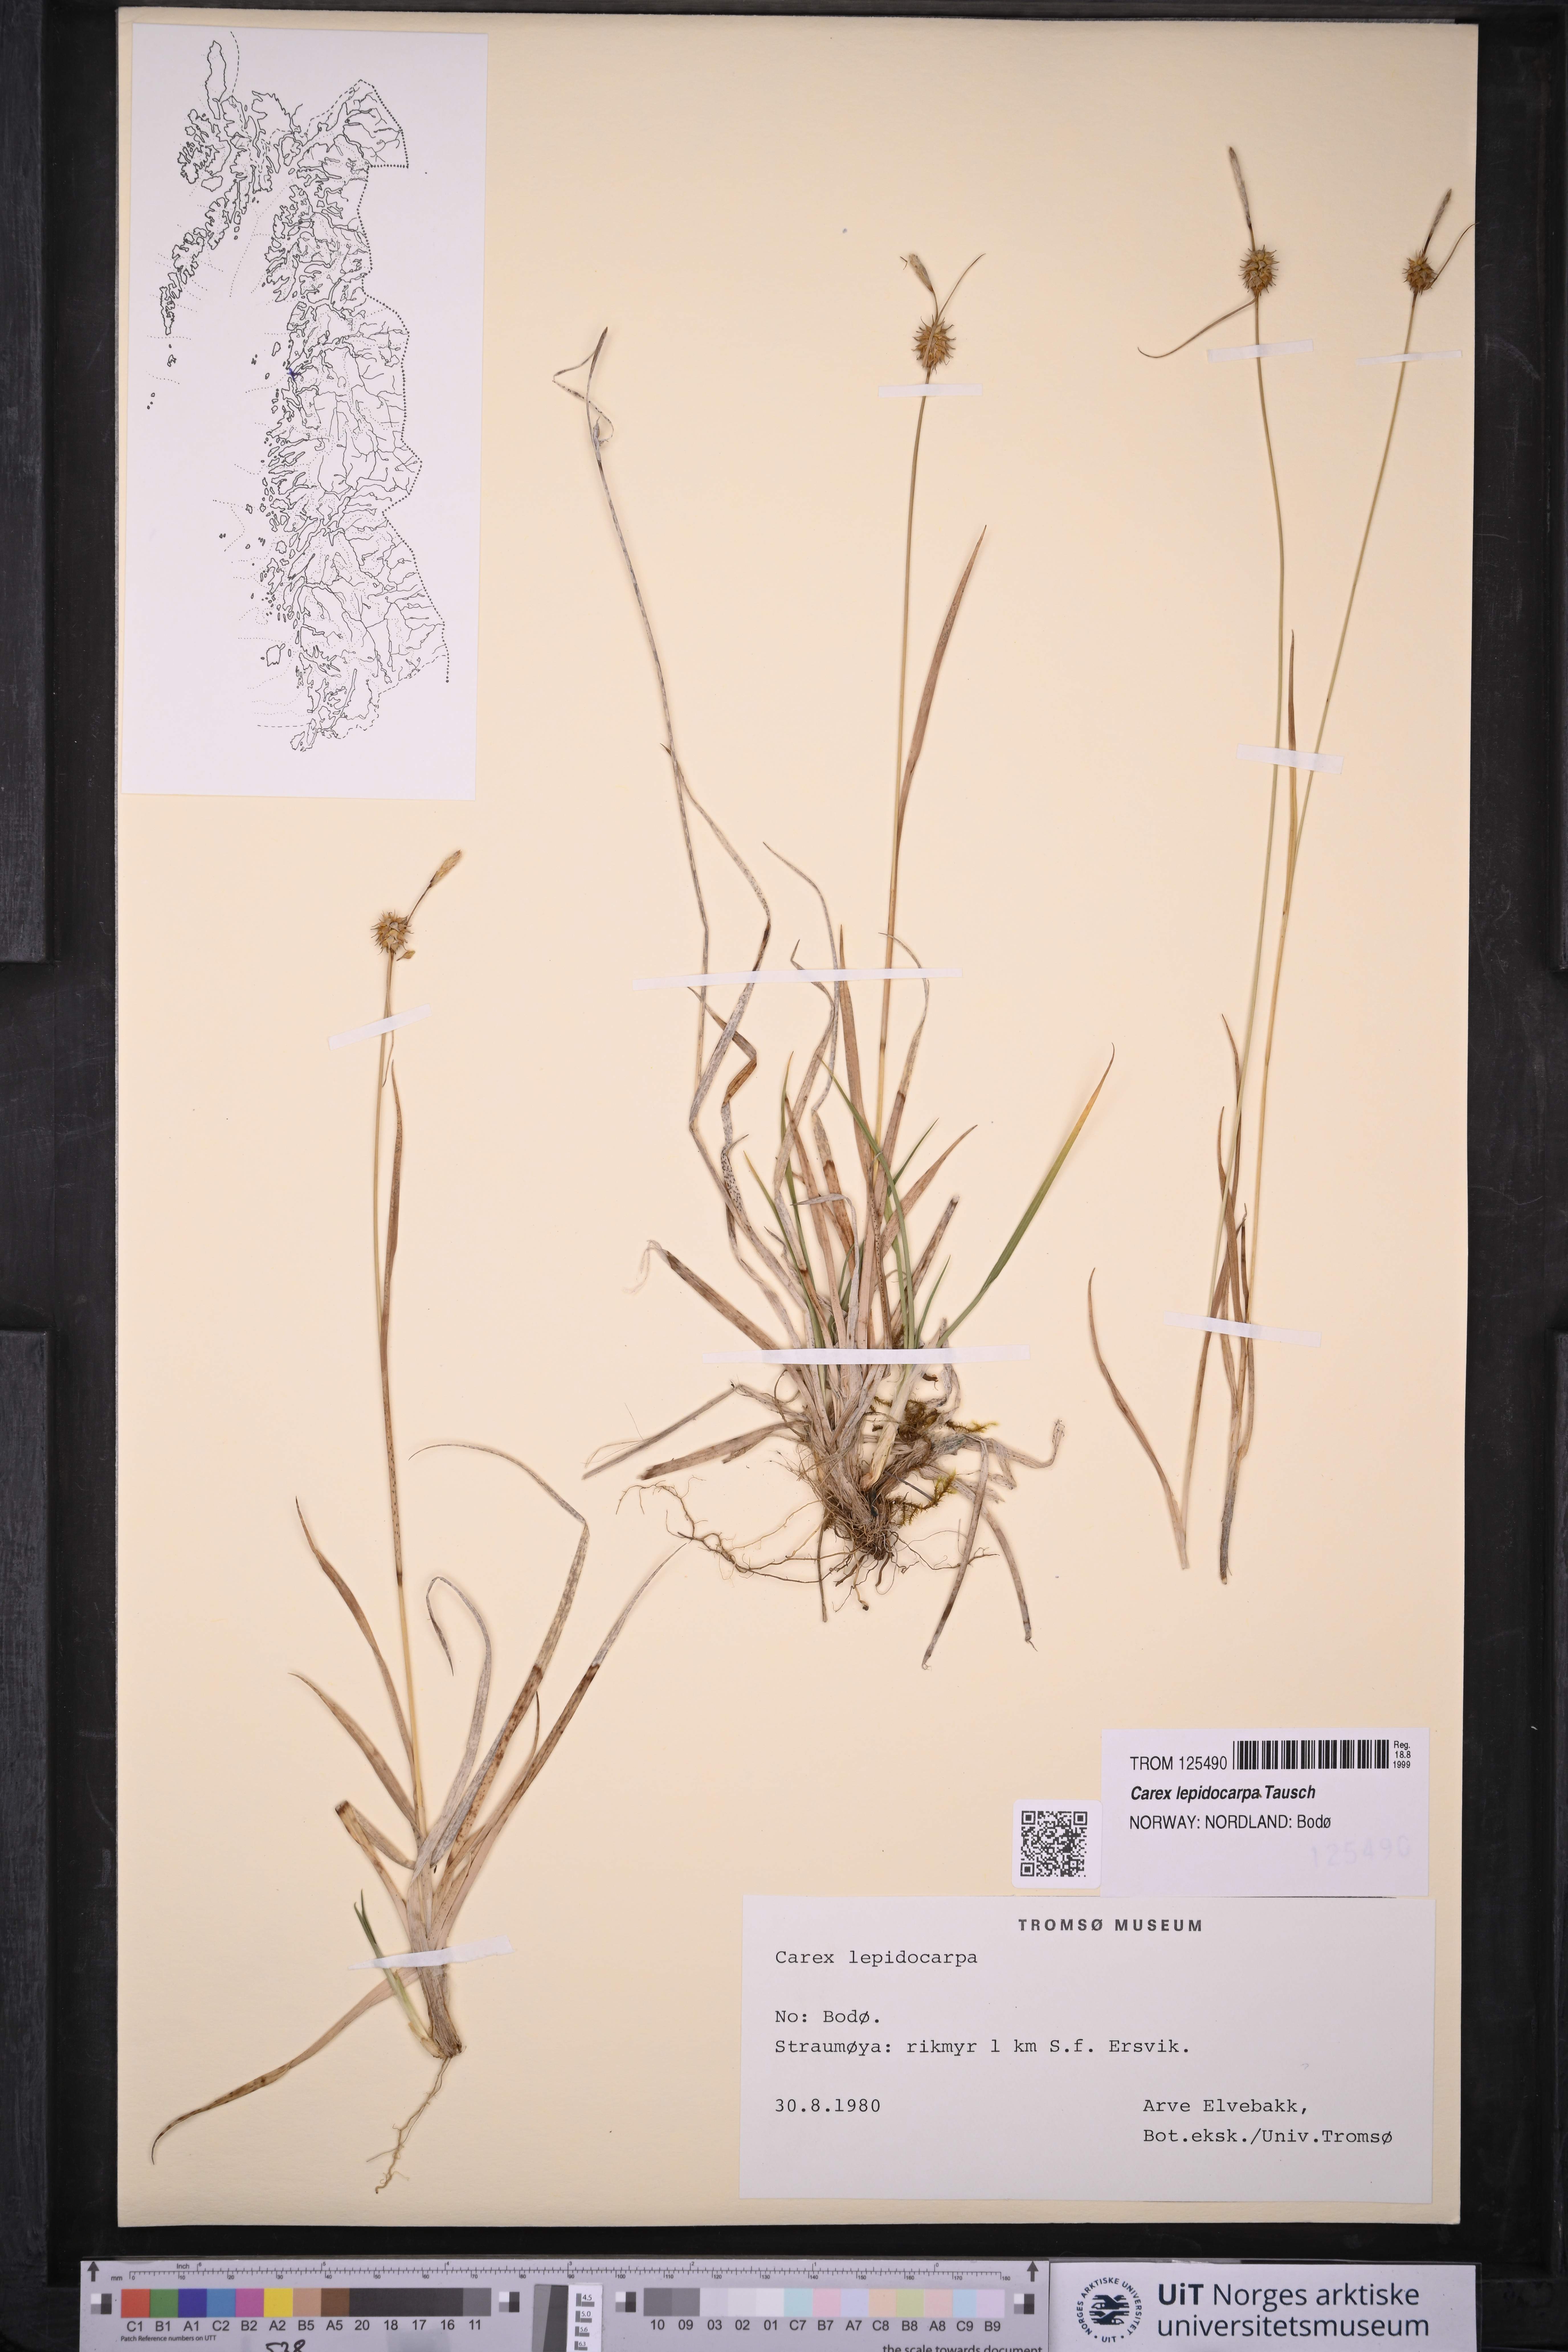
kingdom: Plantae
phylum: Tracheophyta
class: Liliopsida
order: Poales
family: Cyperaceae
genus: Carex
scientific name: Carex lepidocarpa
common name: Long-stalked yellow-sedge
